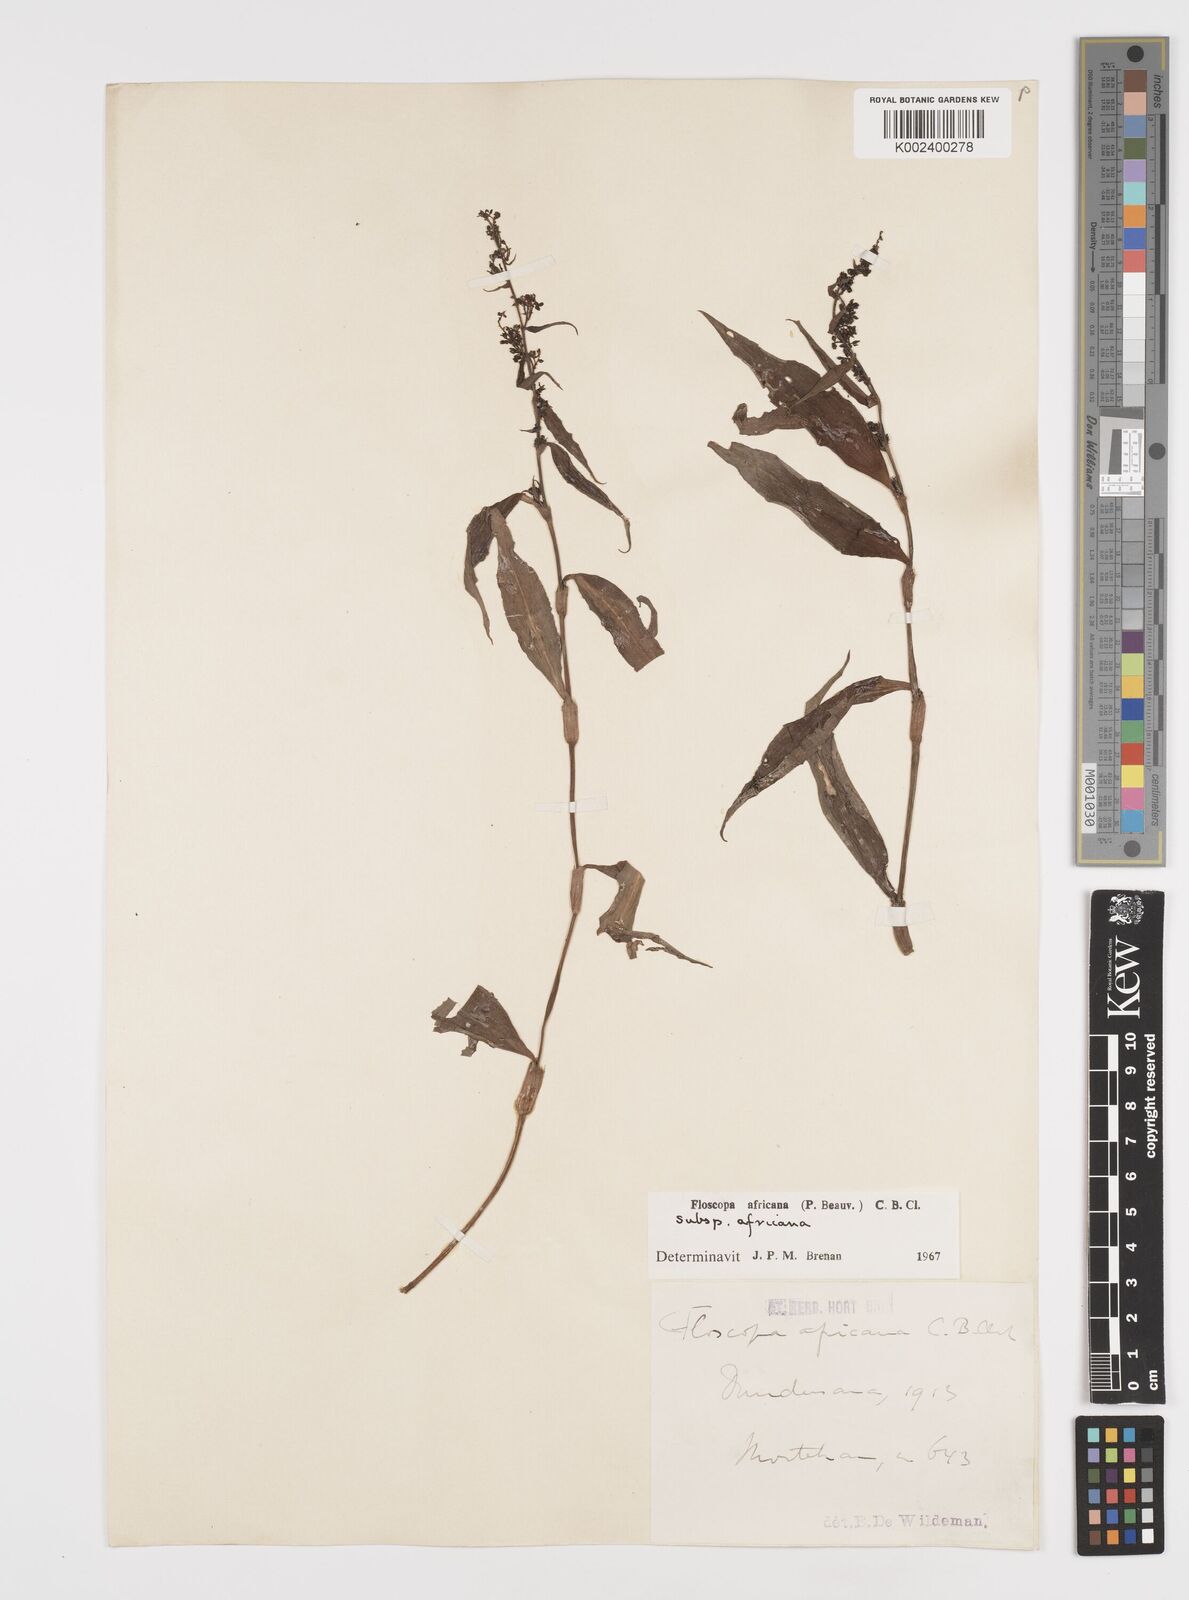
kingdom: Plantae
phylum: Tracheophyta
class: Liliopsida
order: Commelinales
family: Commelinaceae
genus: Floscopa
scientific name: Floscopa africana
